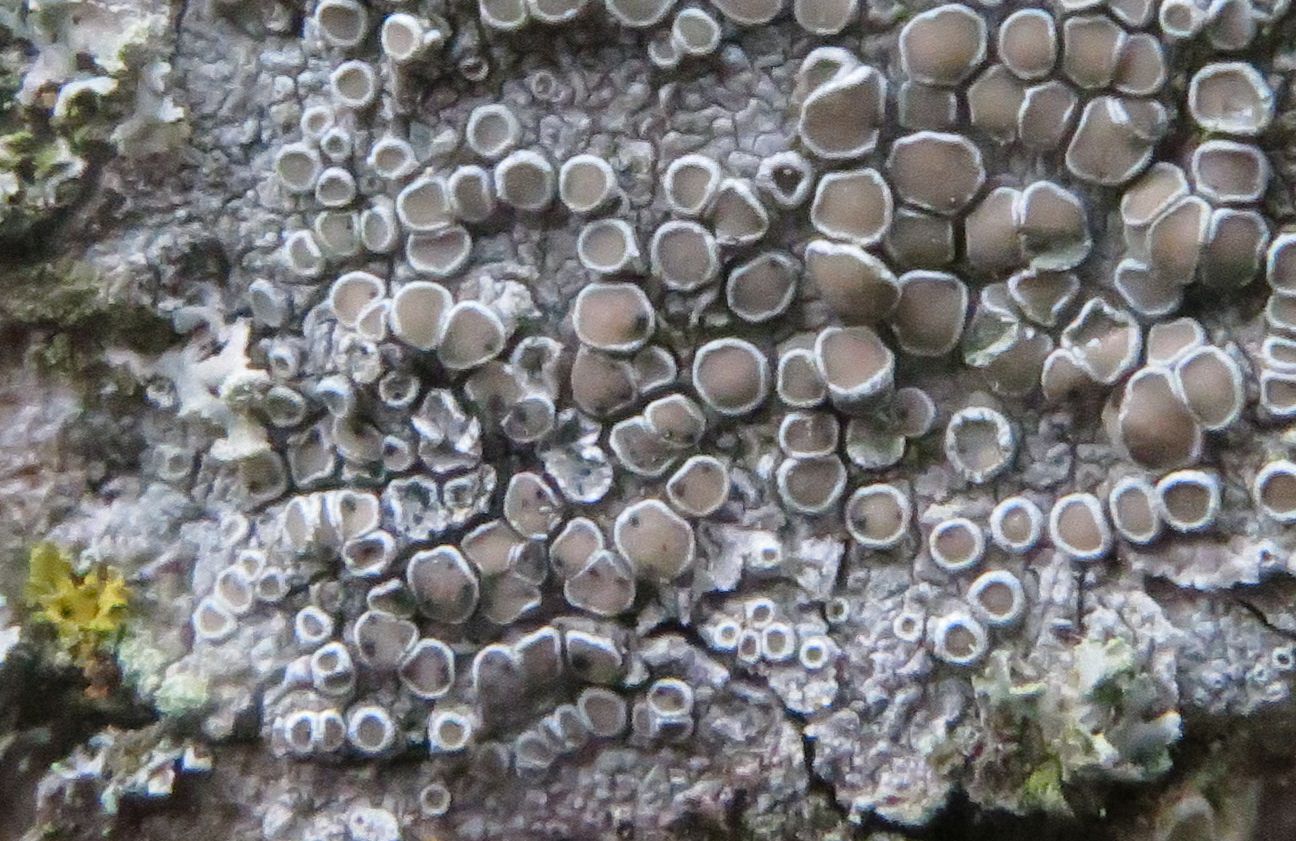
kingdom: Fungi
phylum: Ascomycota
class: Dothideomycetes
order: Pleosporales
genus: Vouauxiella
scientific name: Vouauxiella lichenicola
